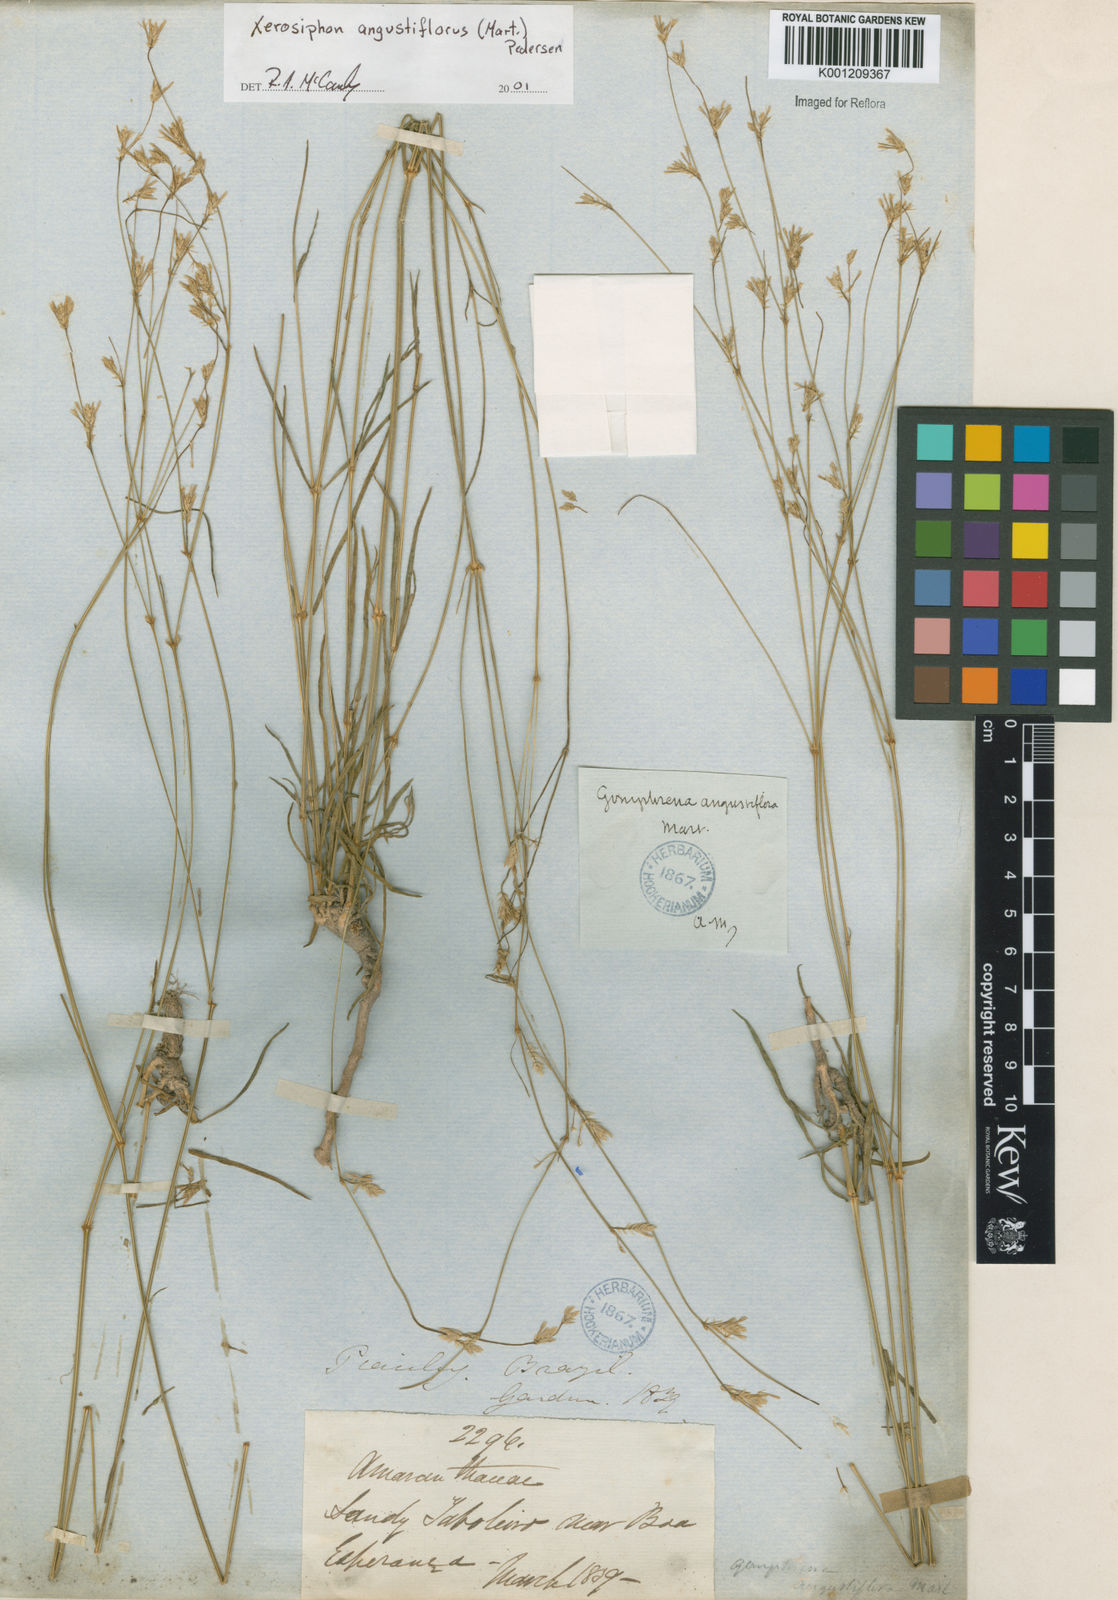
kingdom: Plantae
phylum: Tracheophyta
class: Magnoliopsida
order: Caryophyllales
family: Amaranthaceae
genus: Gomphrena
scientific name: Gomphrena angustiflora
